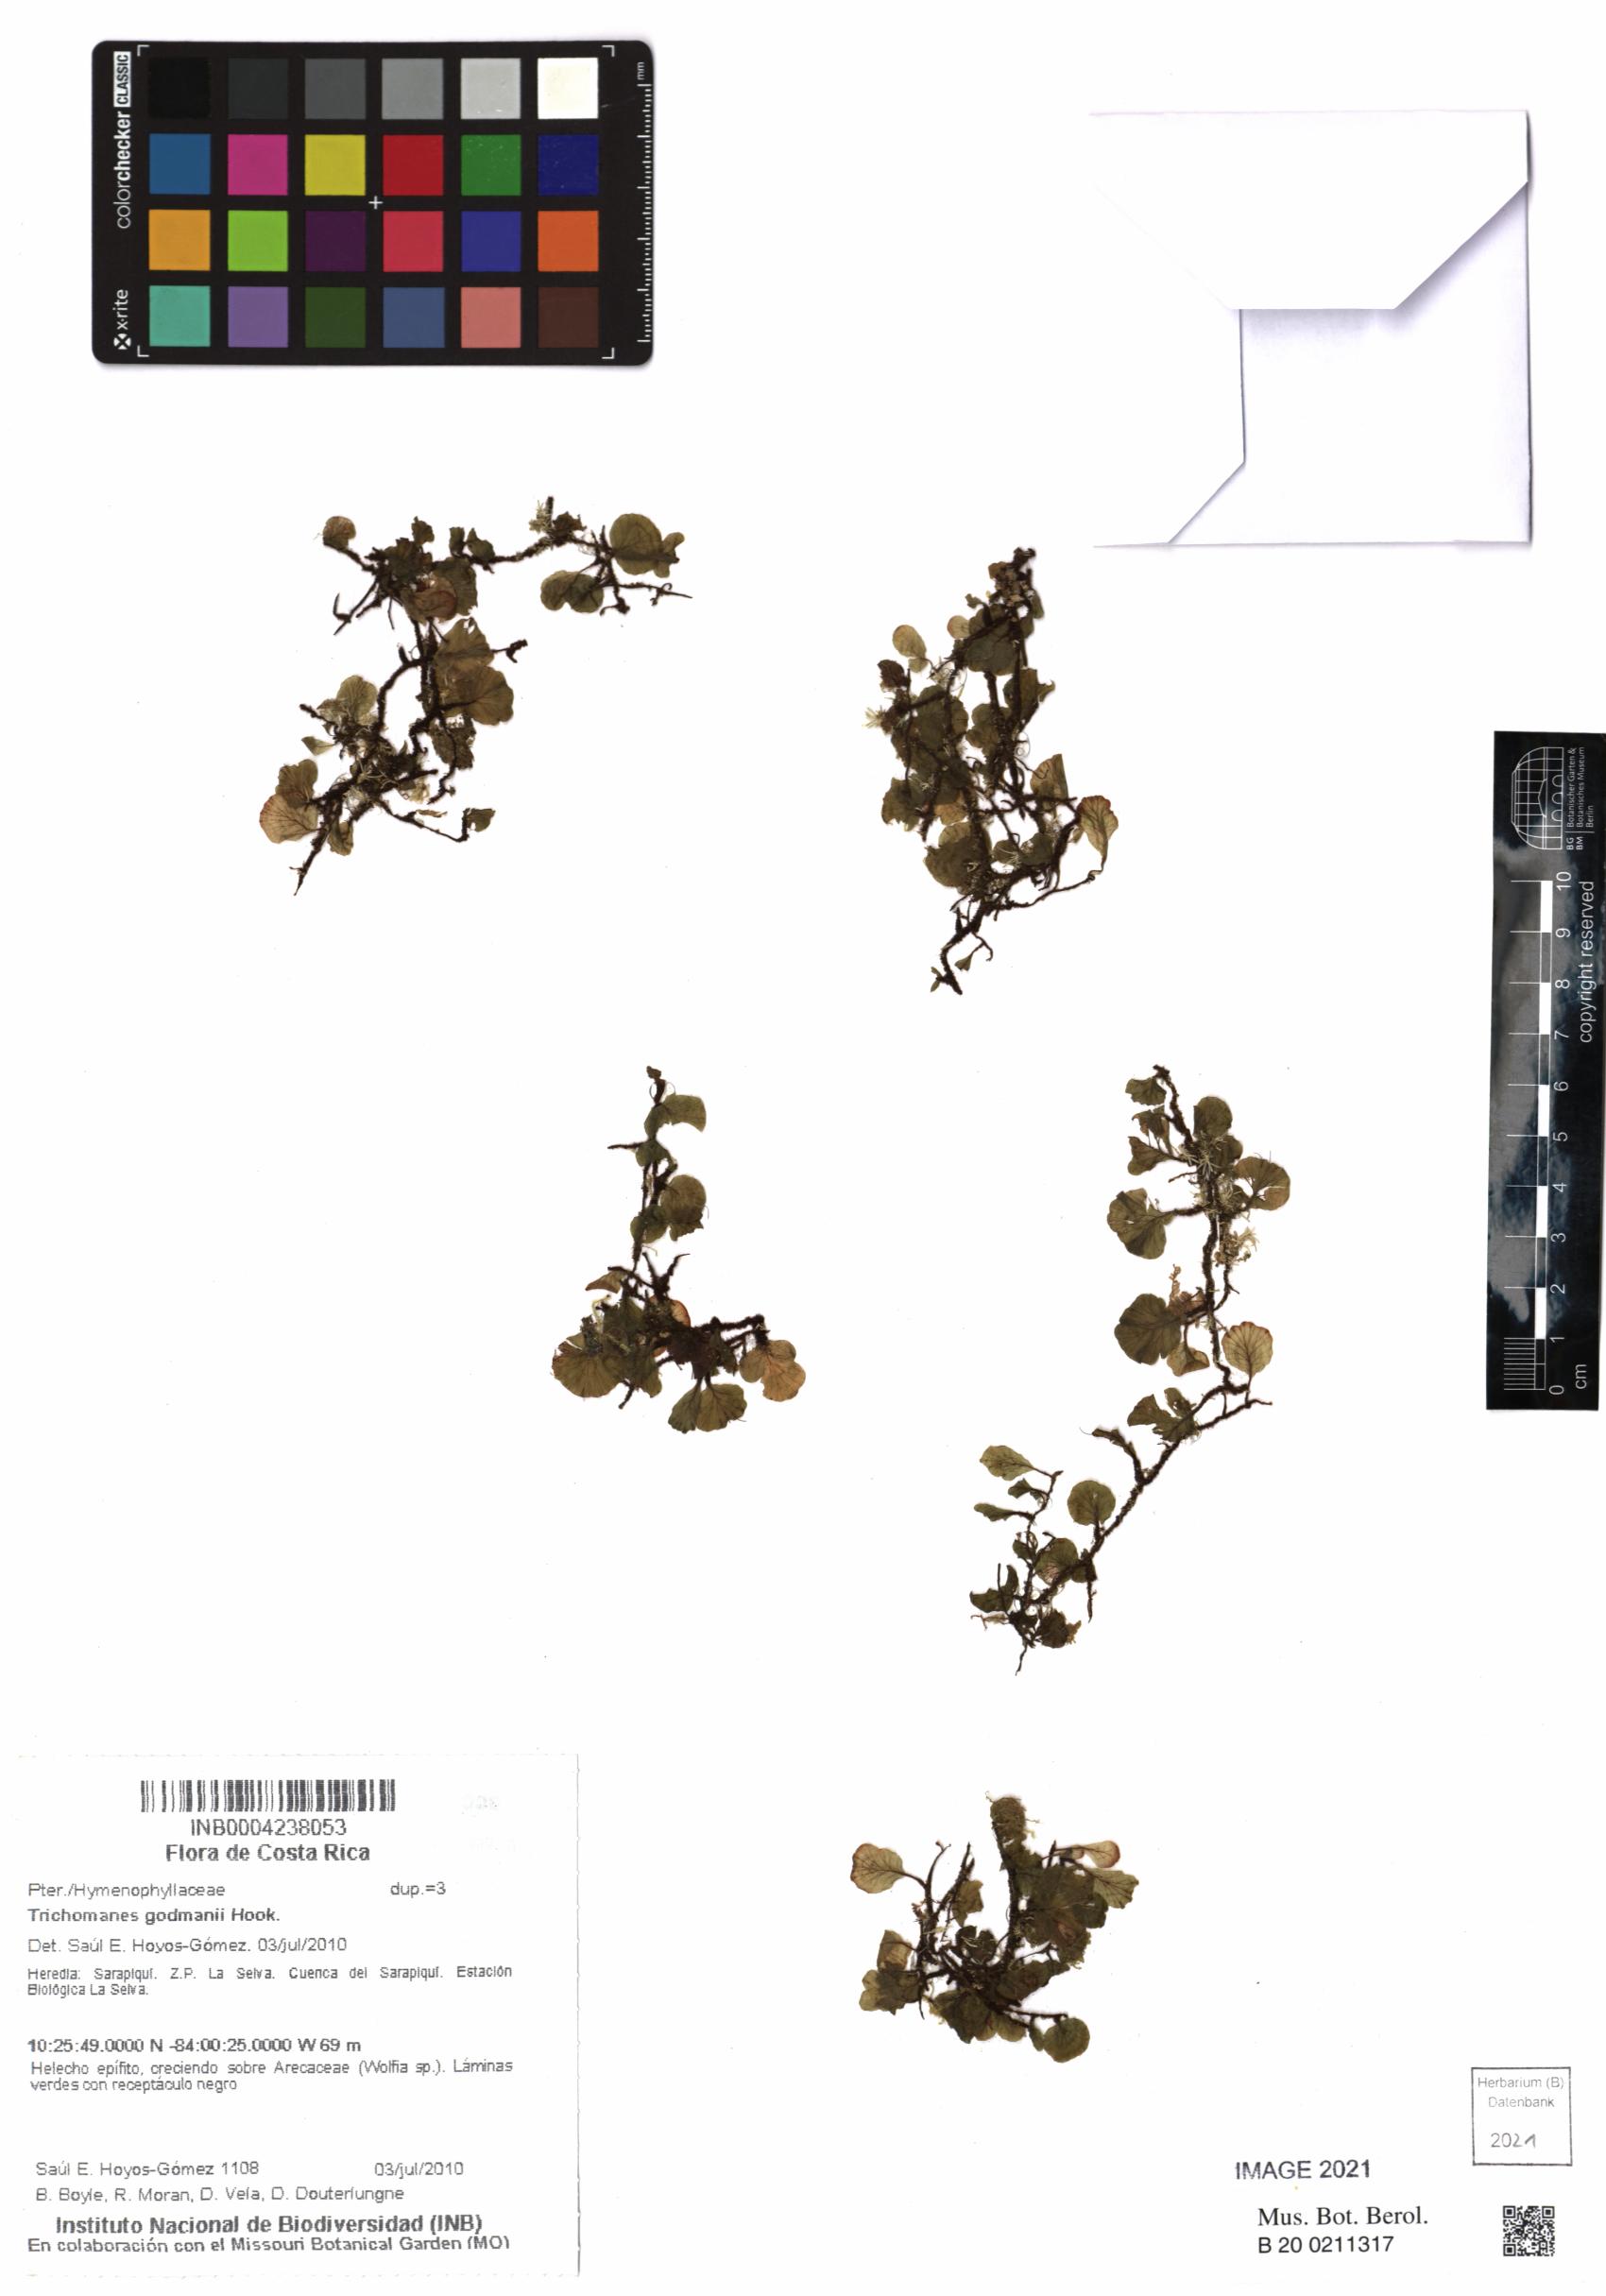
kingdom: Plantae
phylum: Tracheophyta
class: Polypodiopsida
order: Hymenophyllales
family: Hymenophyllaceae
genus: Didymoglossum
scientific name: Didymoglossum godmanii
